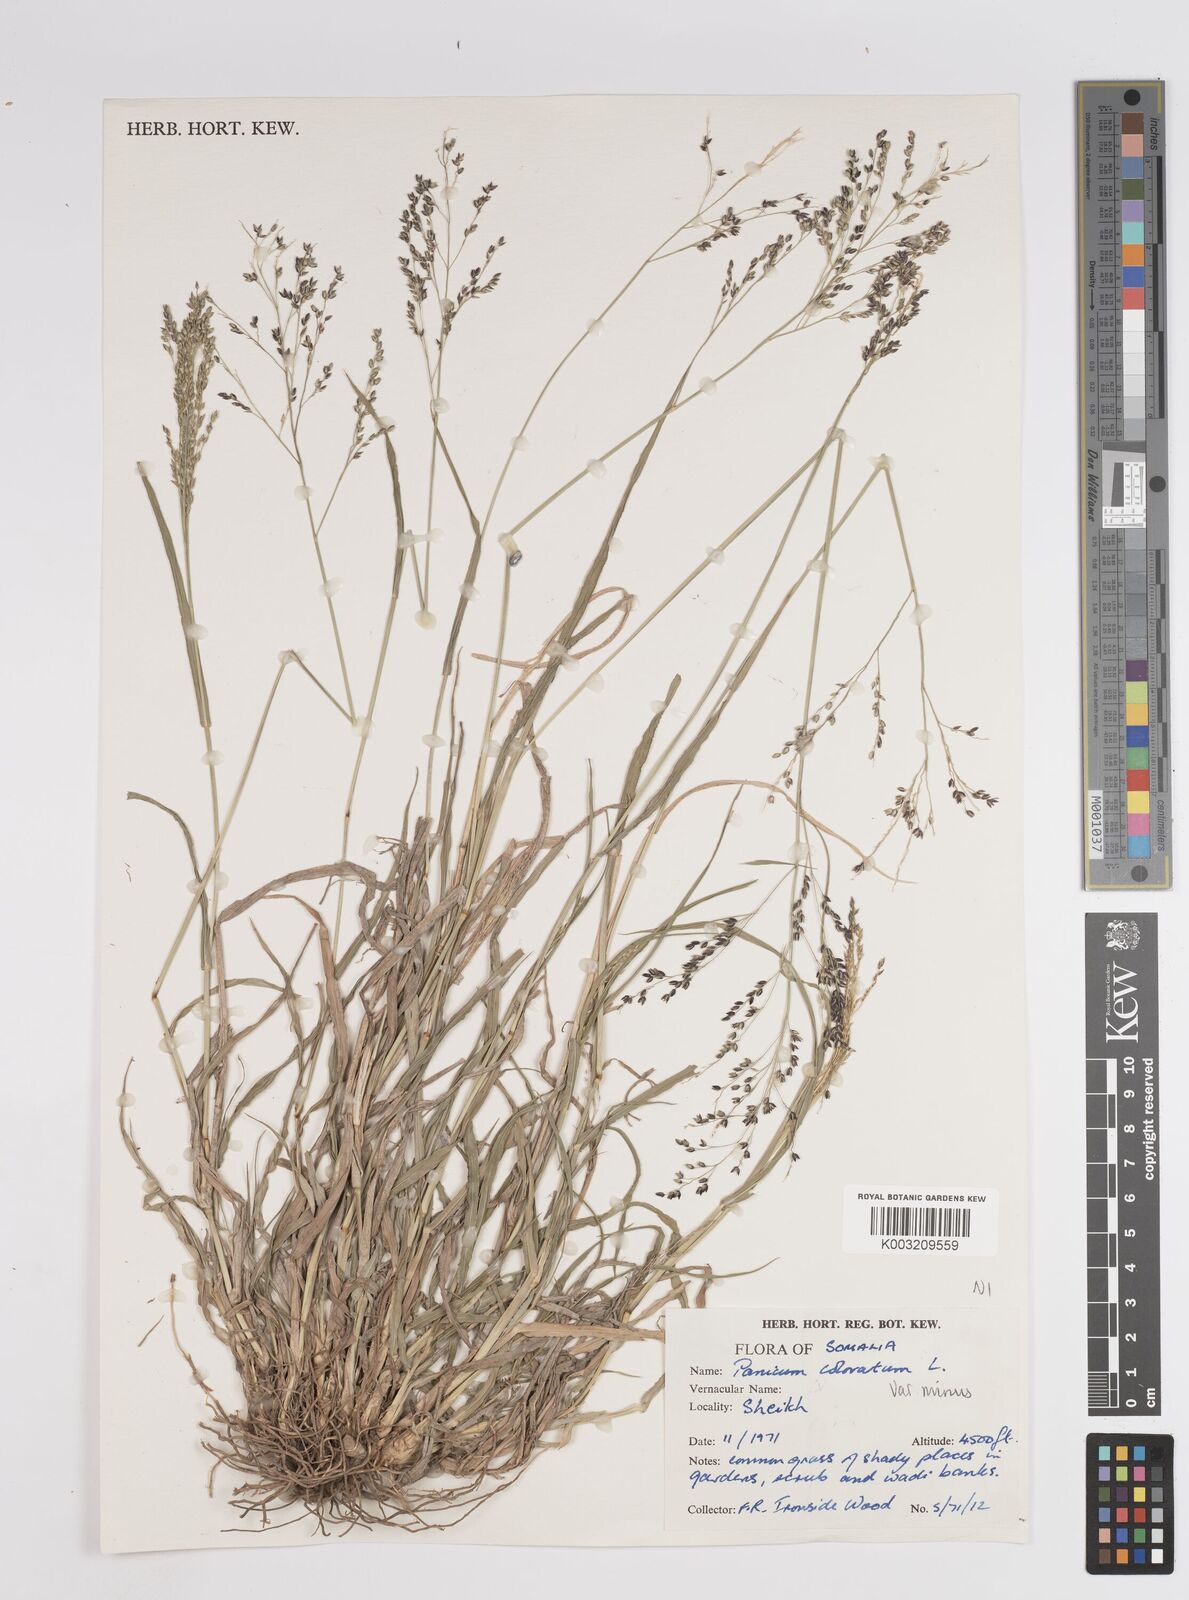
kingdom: Plantae
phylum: Tracheophyta
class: Liliopsida
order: Poales
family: Poaceae
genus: Panicum
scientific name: Panicum coloratum
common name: Kleingrass
